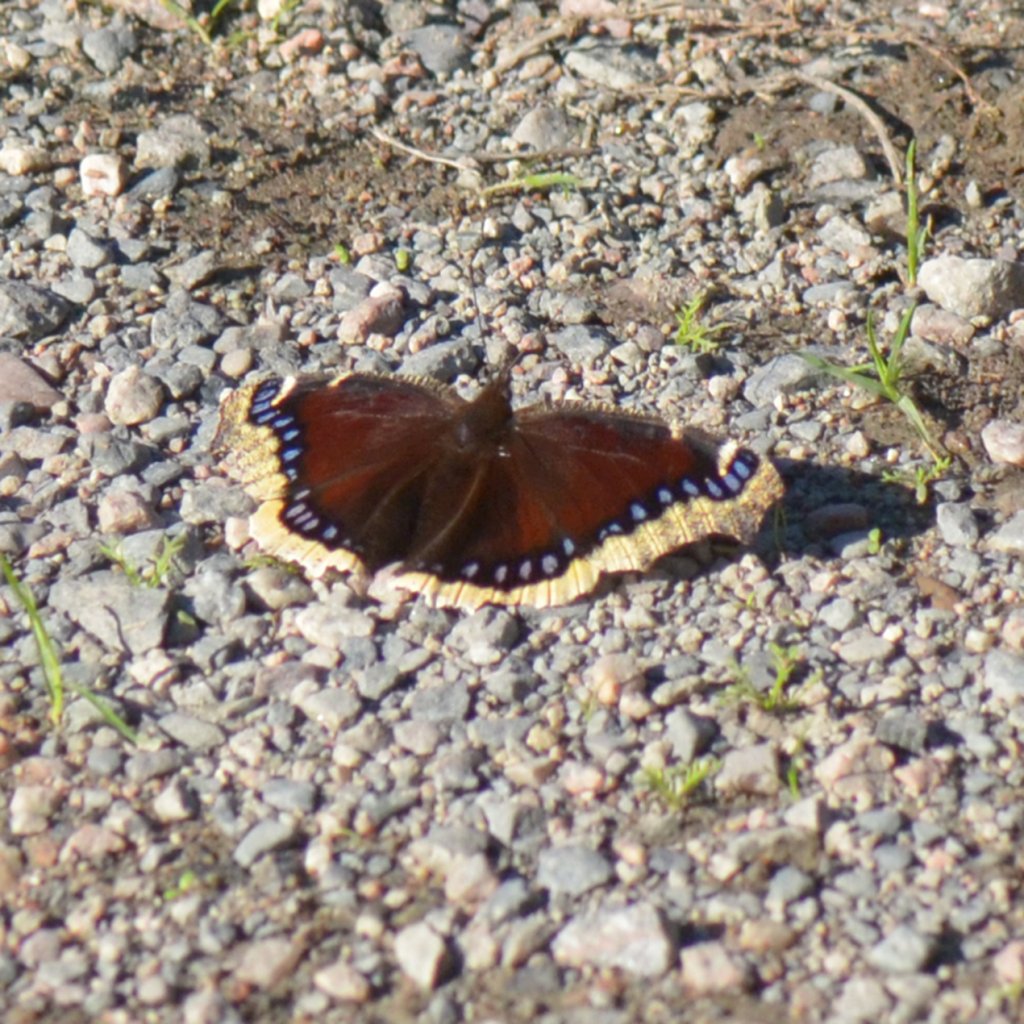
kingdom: Animalia
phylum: Arthropoda
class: Insecta
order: Lepidoptera
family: Nymphalidae
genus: Nymphalis
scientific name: Nymphalis antiopa
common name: Mourning Cloak
